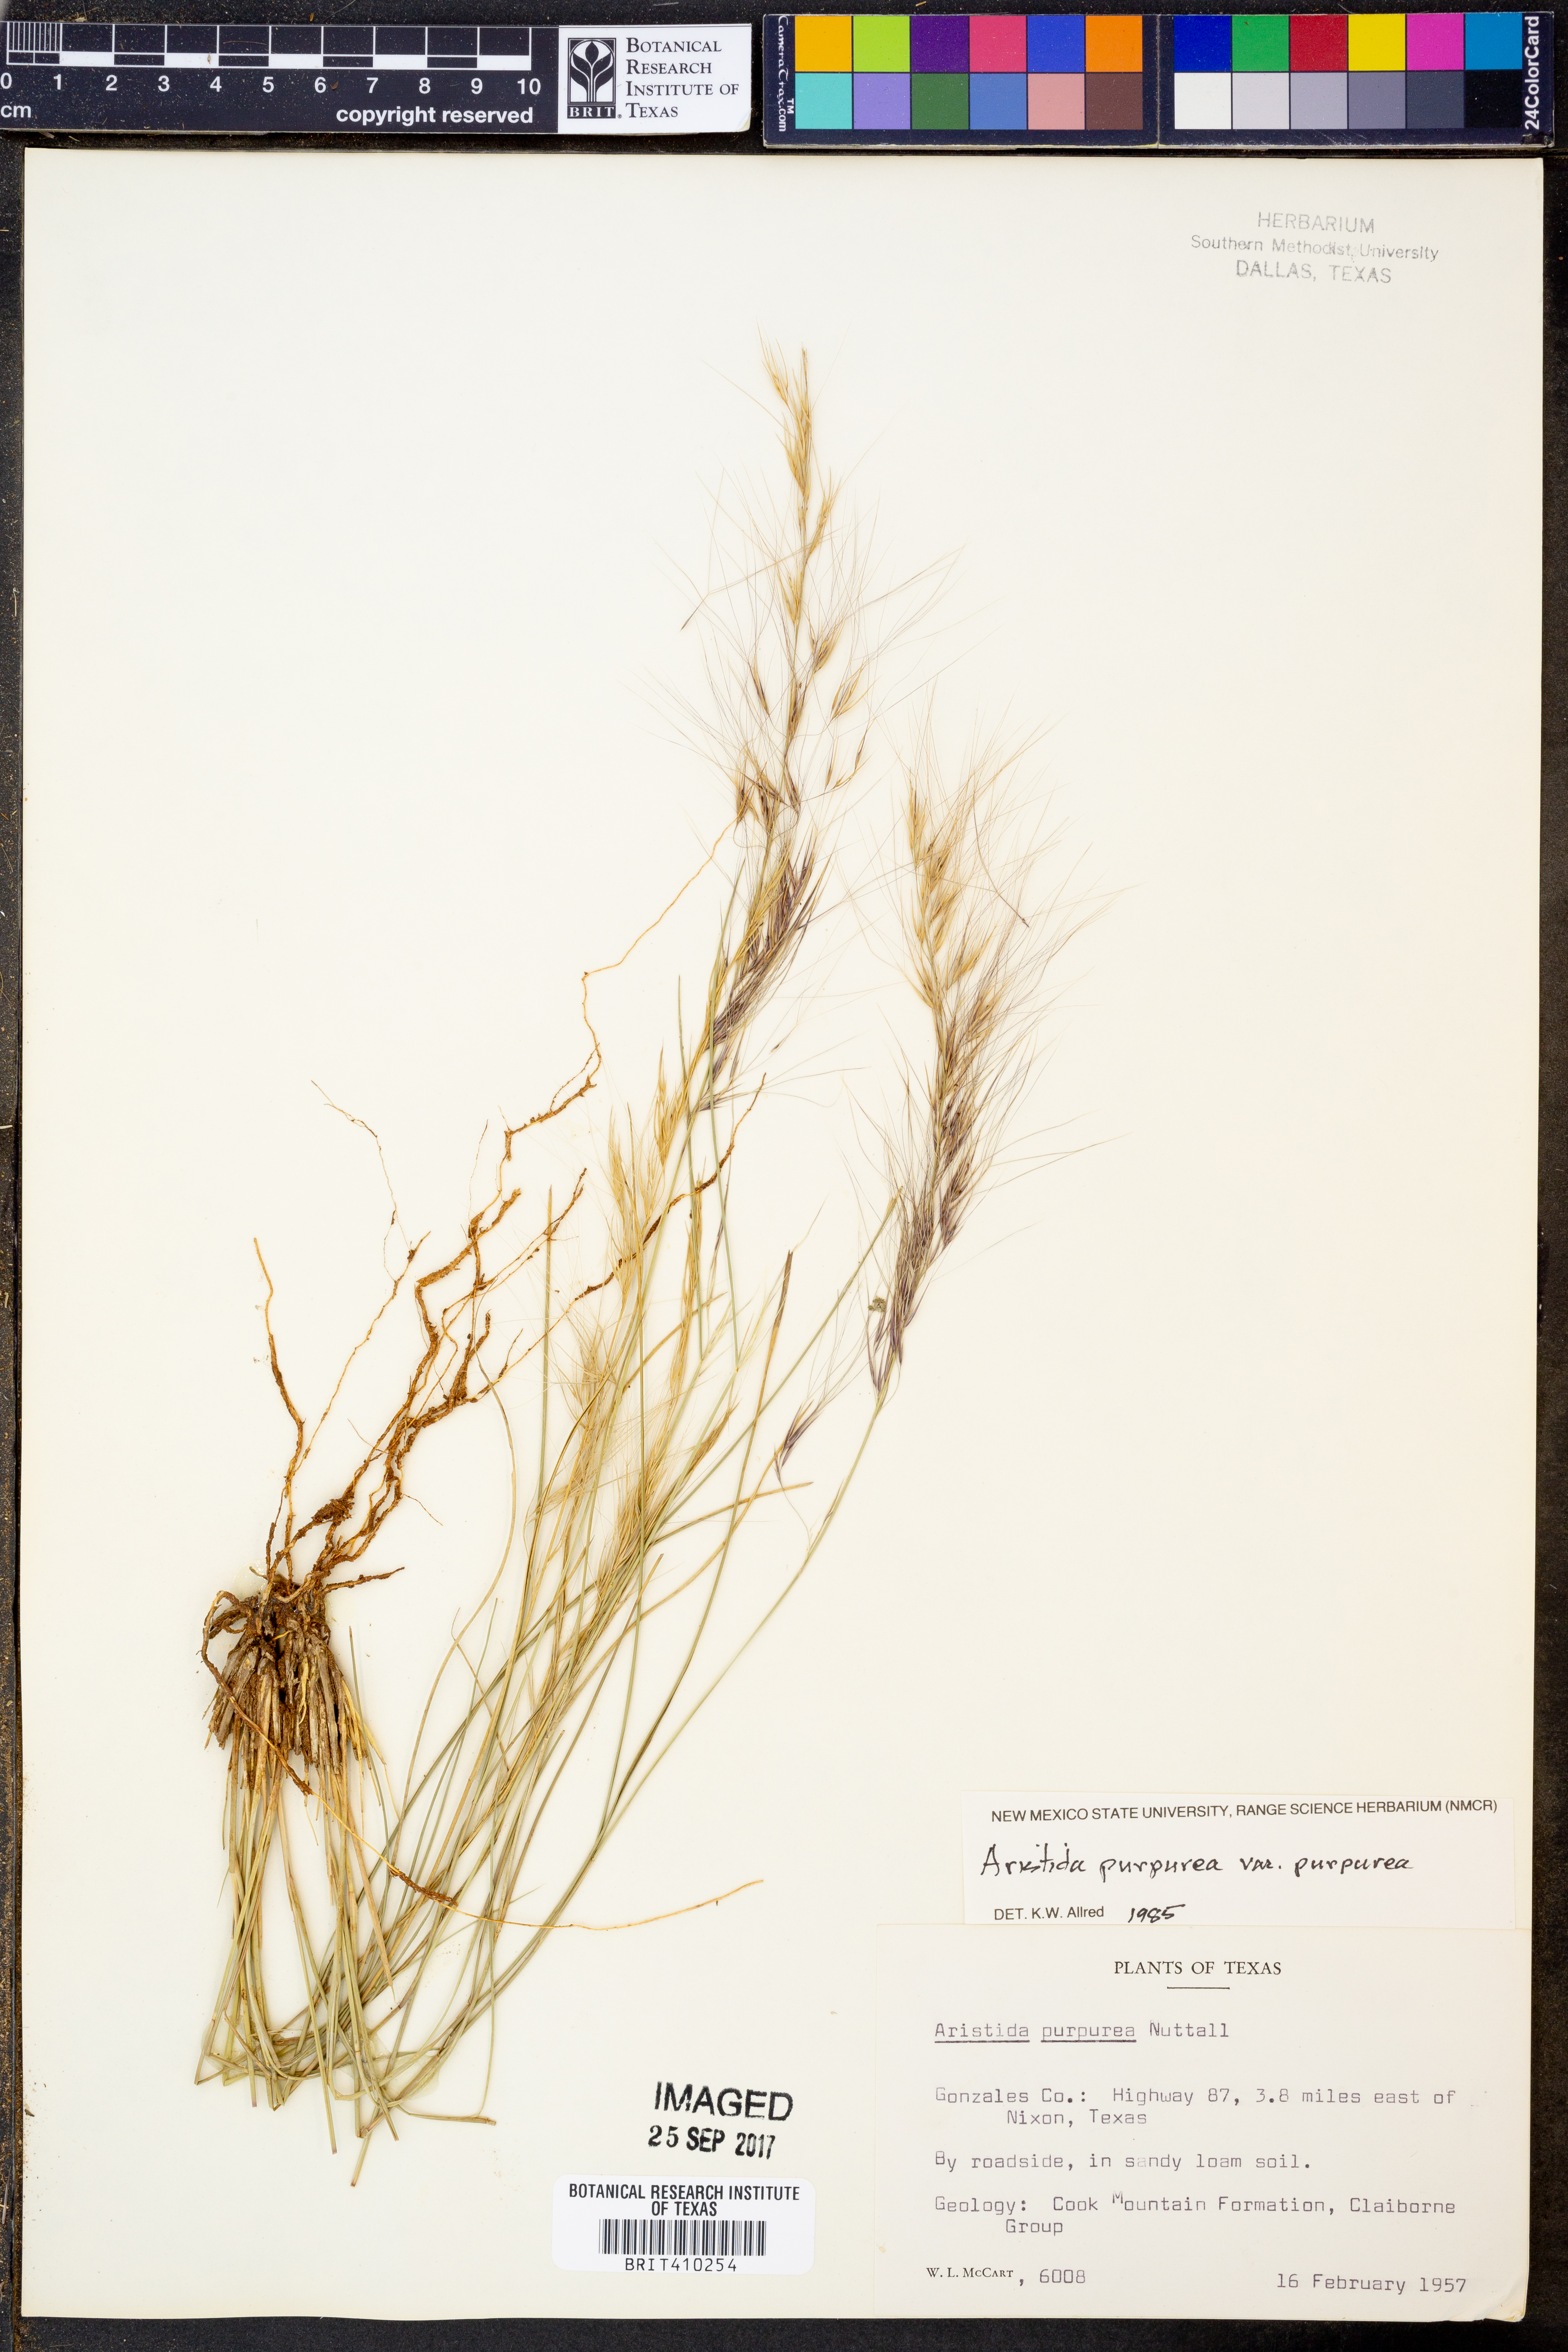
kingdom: Plantae
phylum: Tracheophyta
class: Liliopsida
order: Poales
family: Poaceae
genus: Aristida
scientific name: Aristida purpurea
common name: Purple threeawn
